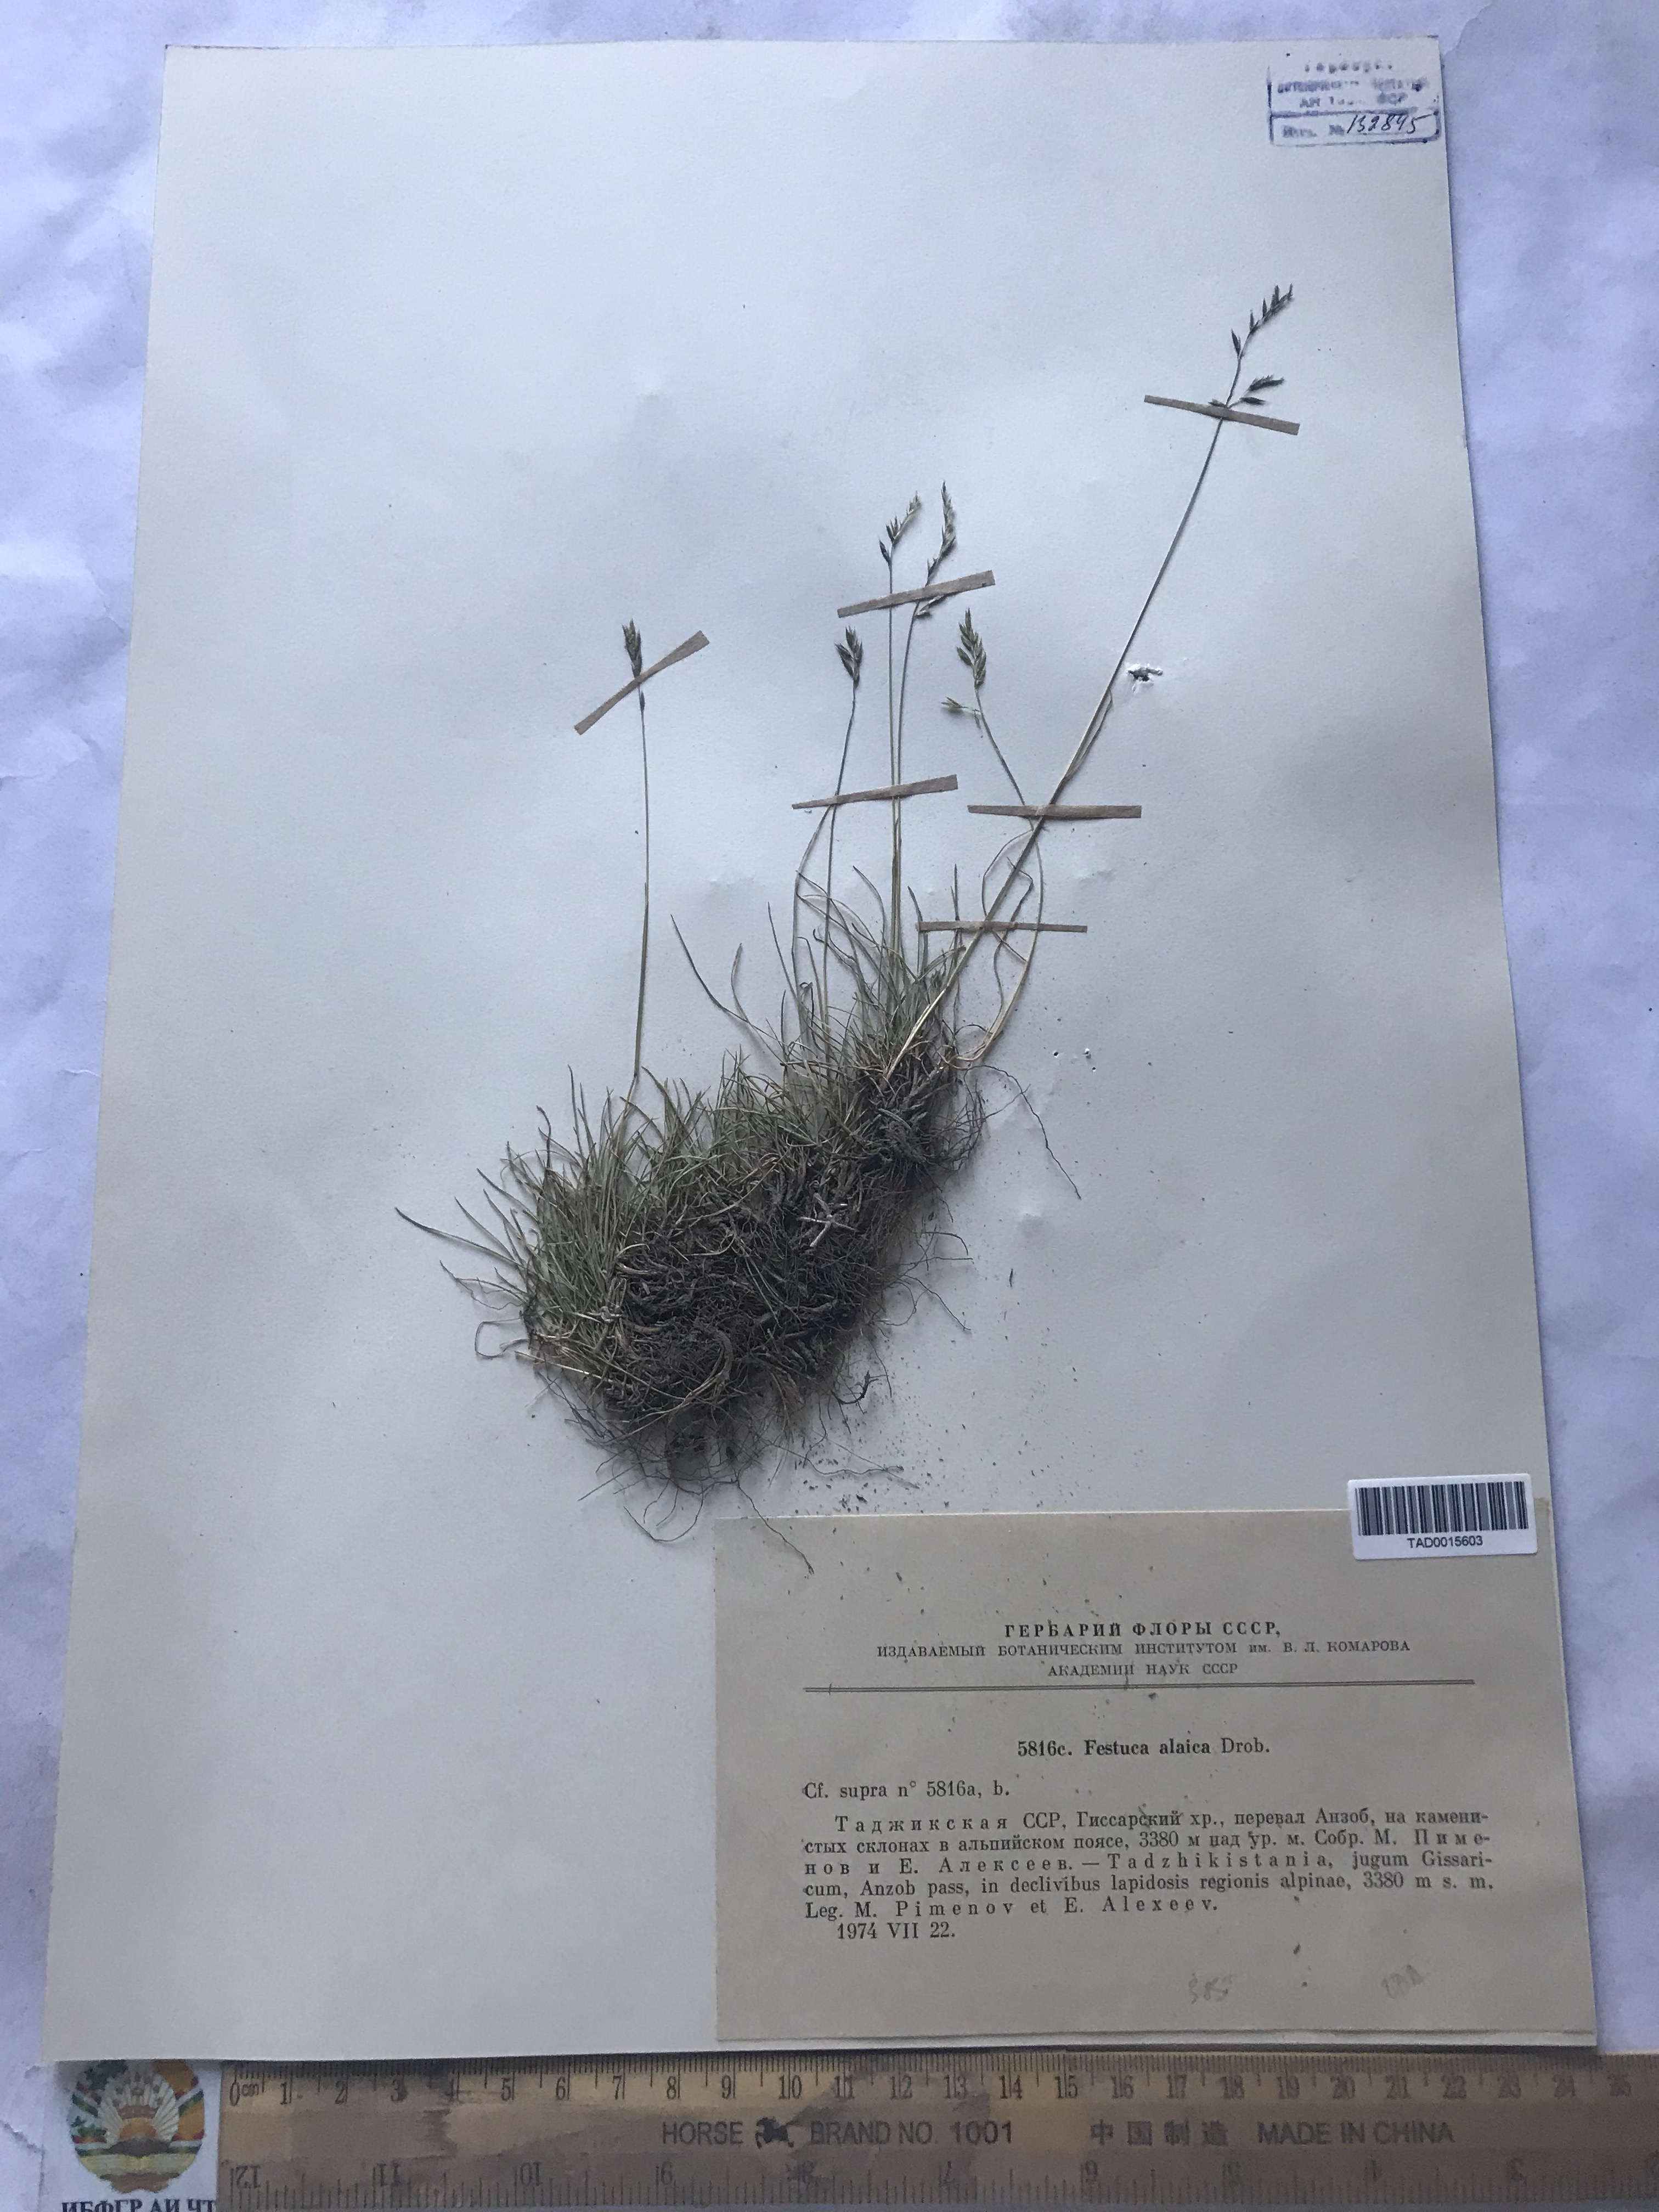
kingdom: Plantae
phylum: Tracheophyta
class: Liliopsida
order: Poales
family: Poaceae
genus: Festuca
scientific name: Festuca alaica
